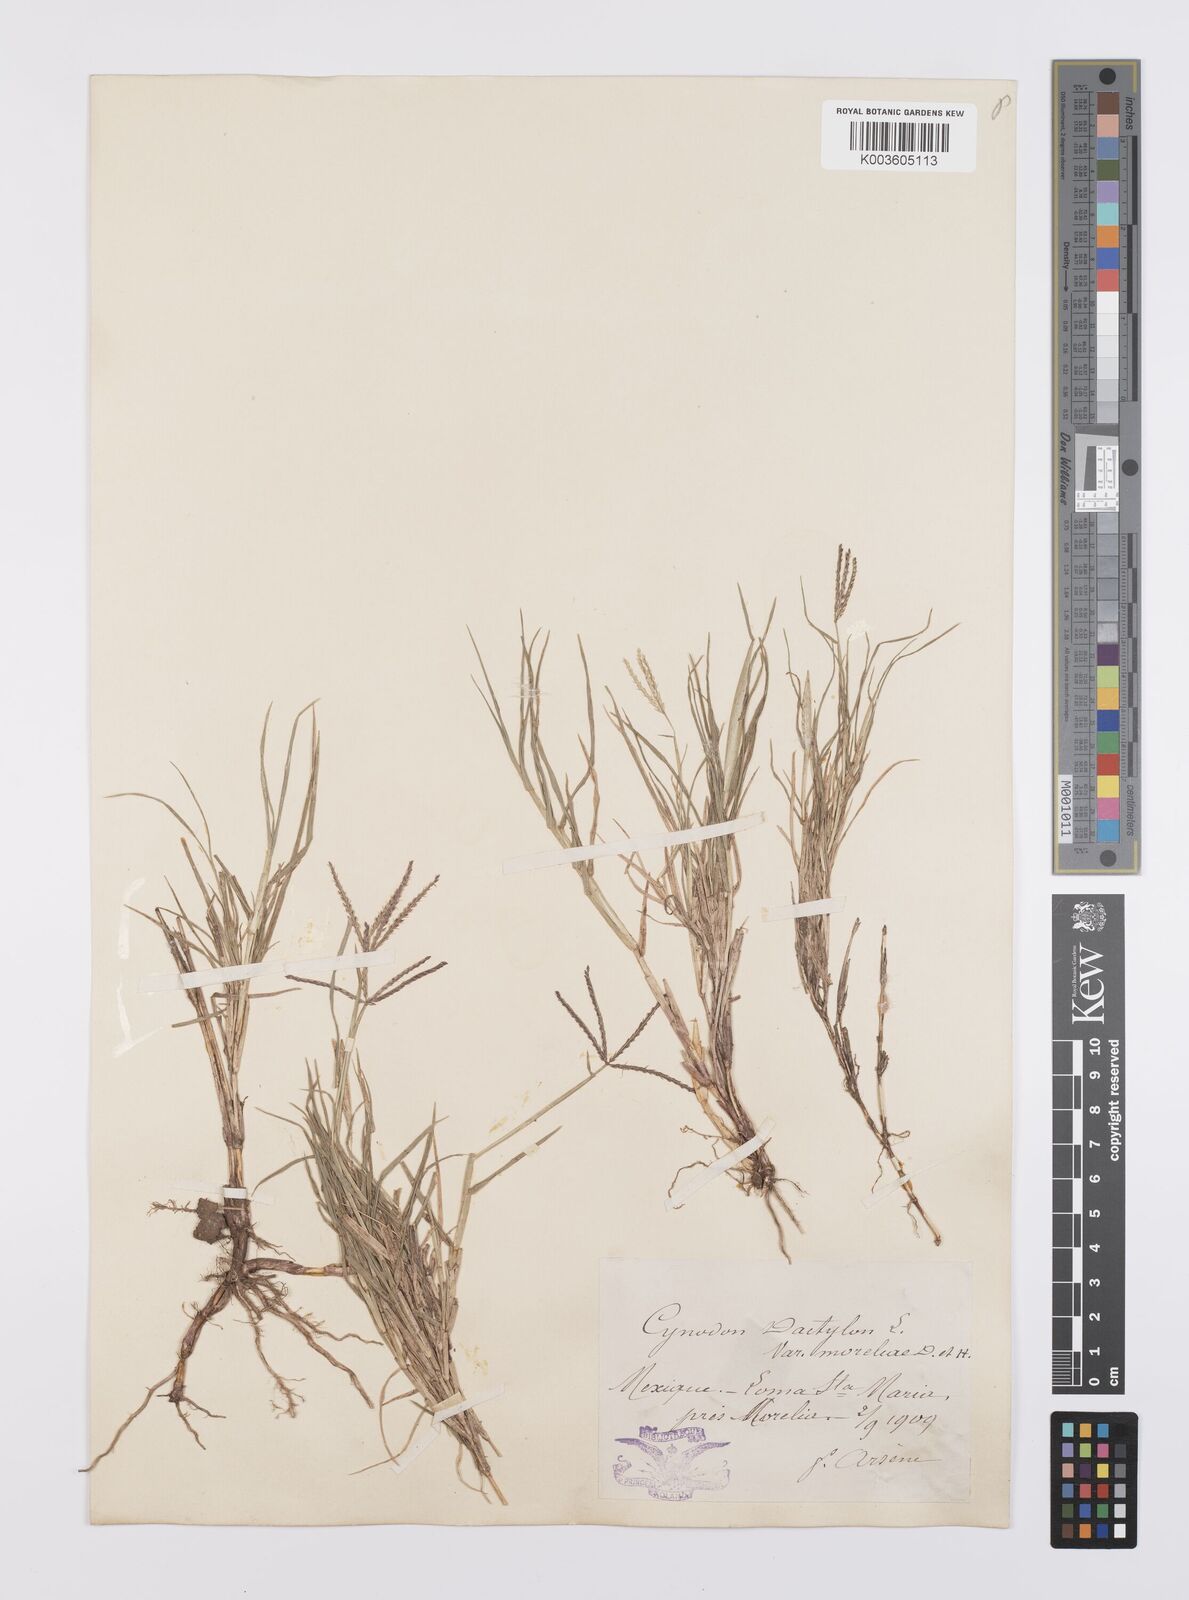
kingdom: Plantae
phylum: Tracheophyta
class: Liliopsida
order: Poales
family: Poaceae
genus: Cynodon
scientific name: Cynodon dactylon
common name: Bermuda grass
